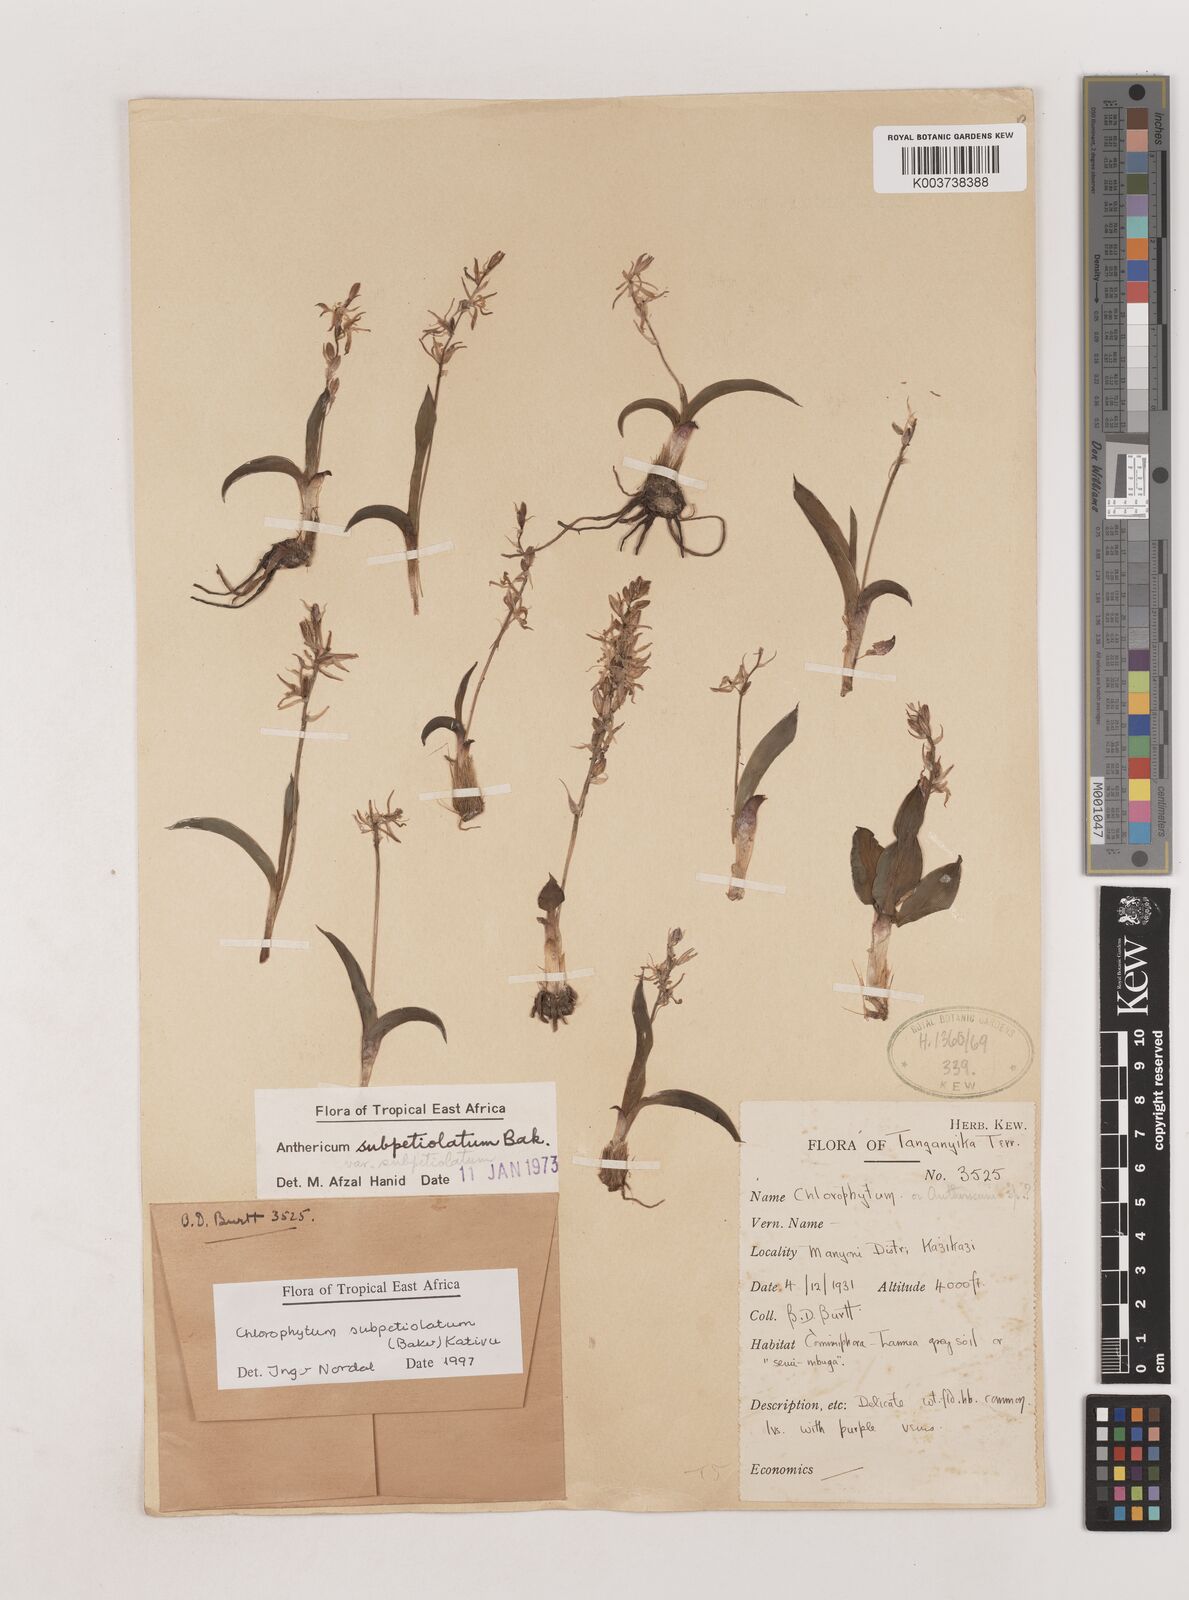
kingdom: Plantae
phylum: Tracheophyta
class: Liliopsida
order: Asparagales
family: Asparagaceae
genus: Chlorophytum
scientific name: Chlorophytum subpetiolatum
